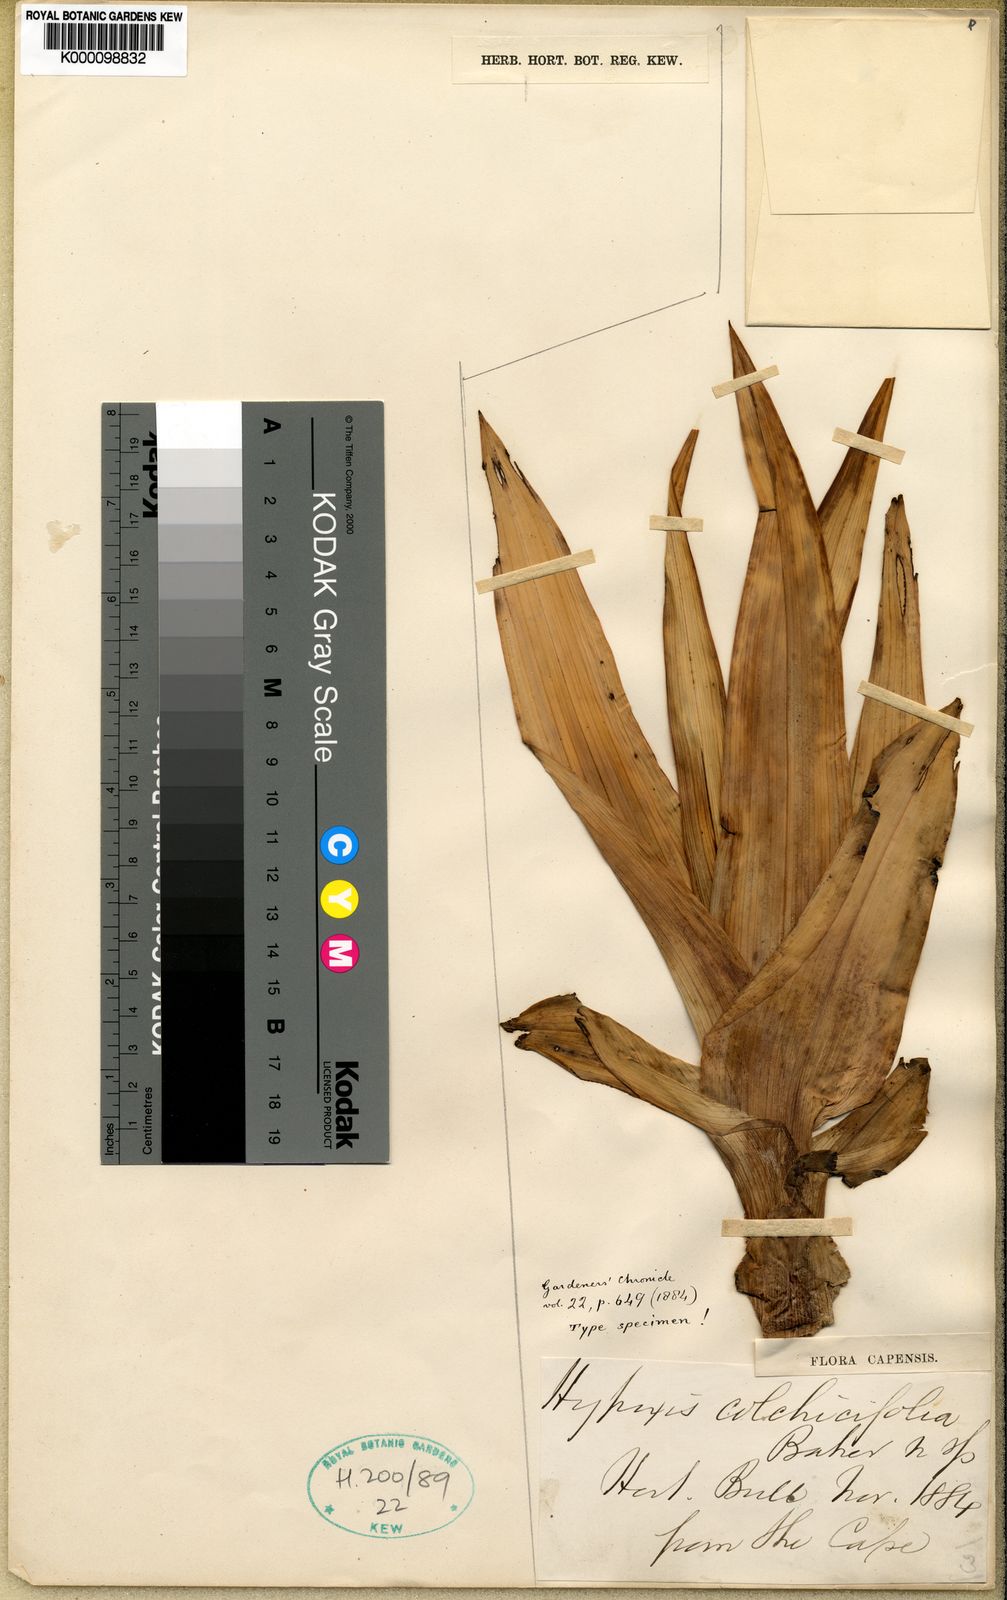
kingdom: Plantae
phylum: Tracheophyta
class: Liliopsida
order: Asparagales
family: Hypoxidaceae
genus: Hypoxis
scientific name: Hypoxis colchicifolia
